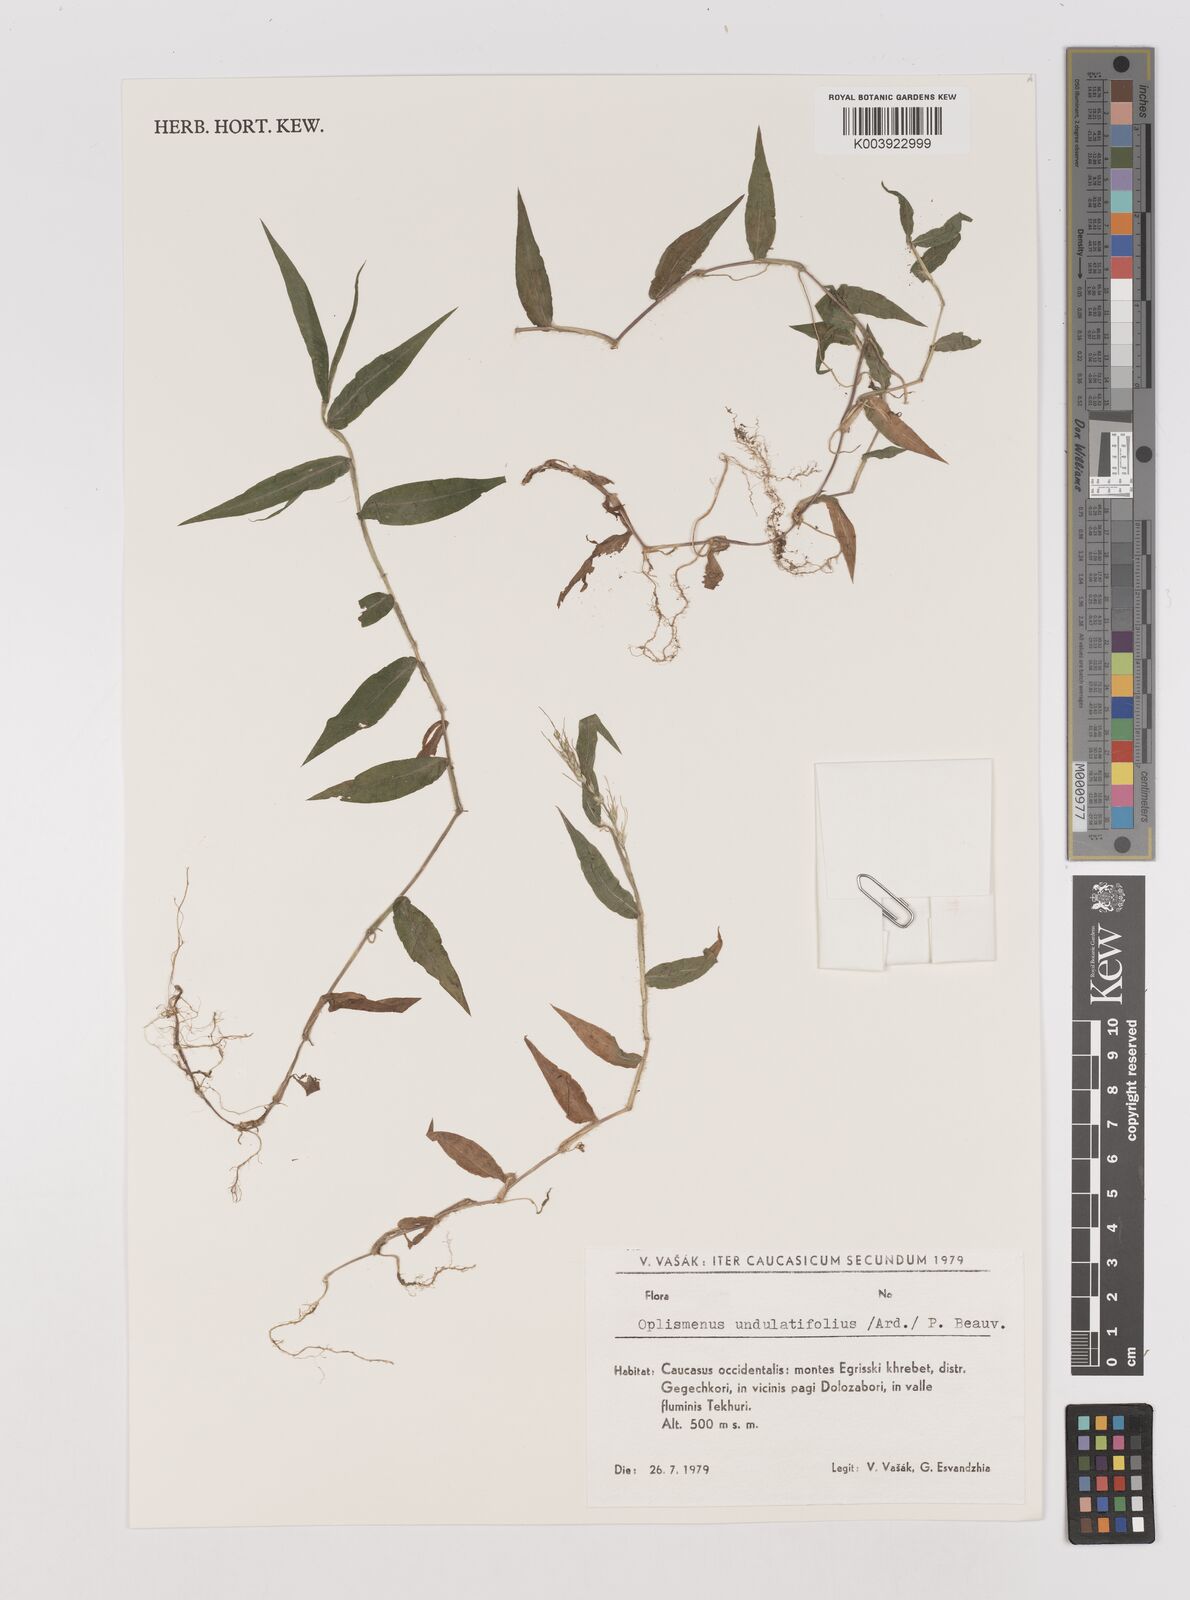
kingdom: Plantae
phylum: Tracheophyta
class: Liliopsida
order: Poales
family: Poaceae
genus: Oplismenus
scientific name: Oplismenus undulatifolius
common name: Wavyleaf basketgrass
